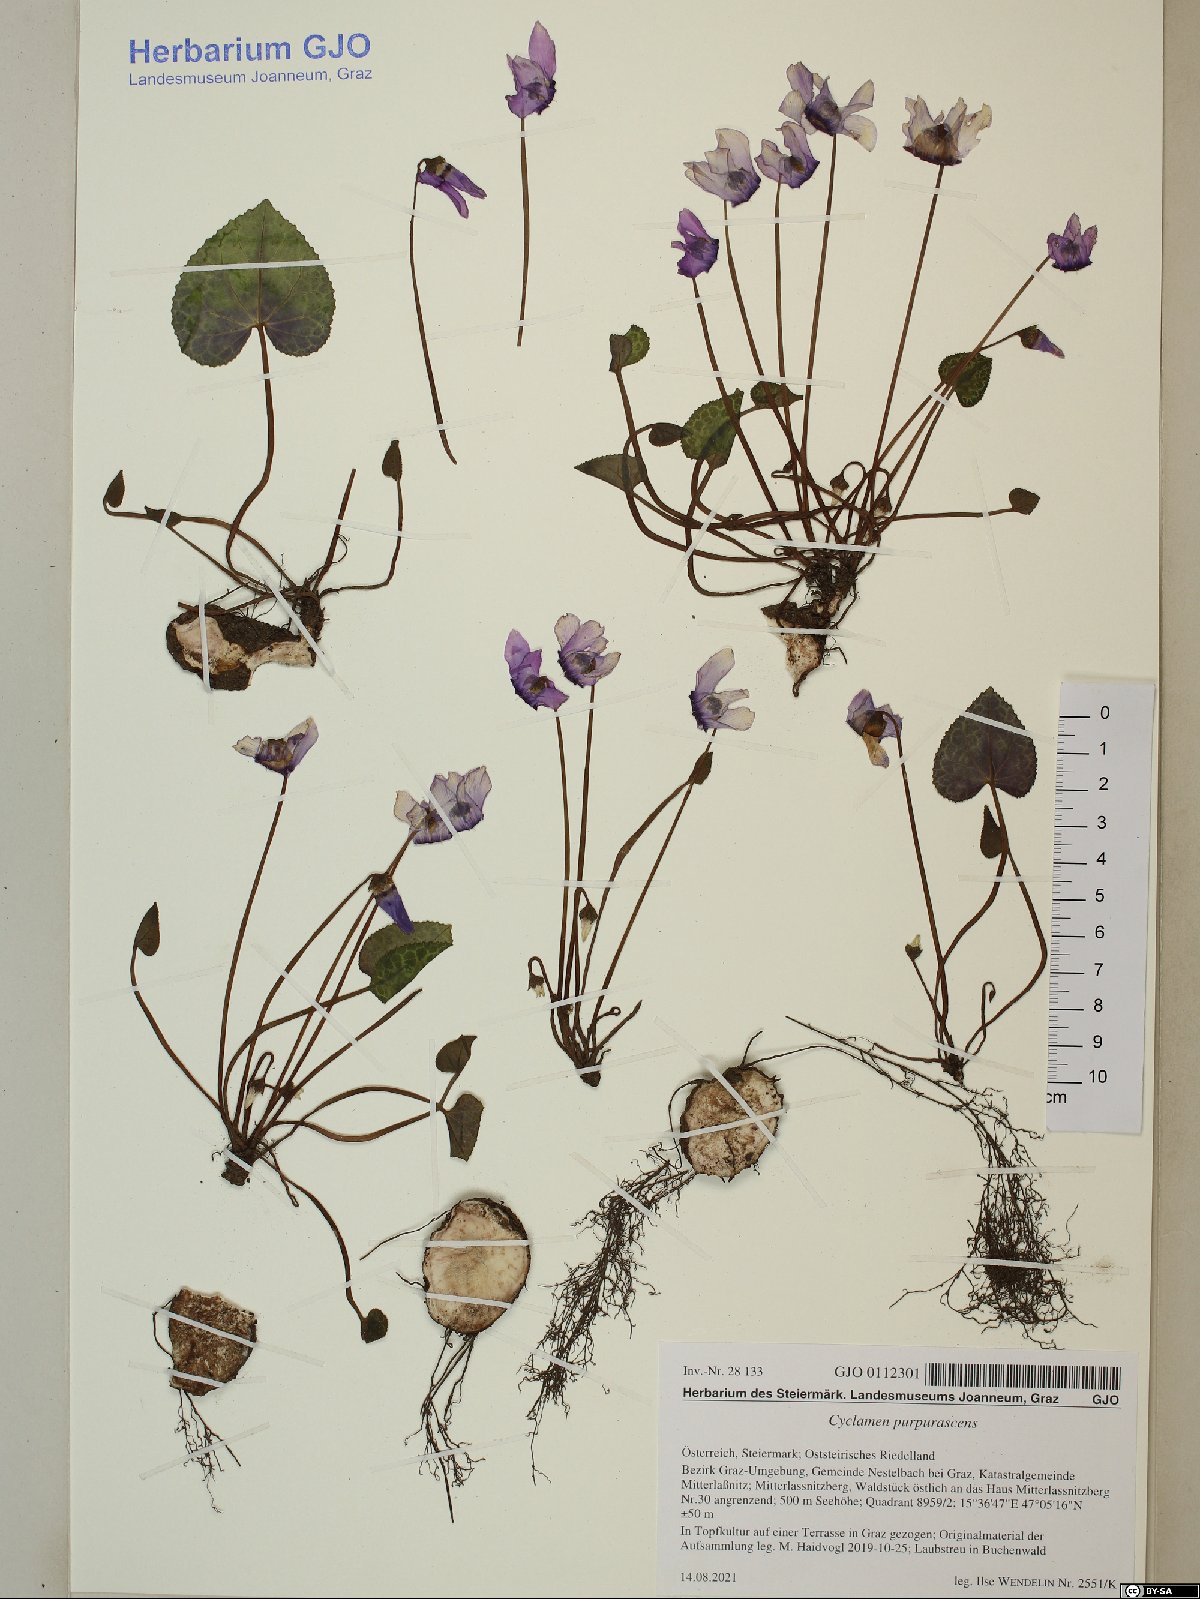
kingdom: Plantae
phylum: Tracheophyta
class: Magnoliopsida
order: Ericales
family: Primulaceae
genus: Cyclamen
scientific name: Cyclamen purpurascens
